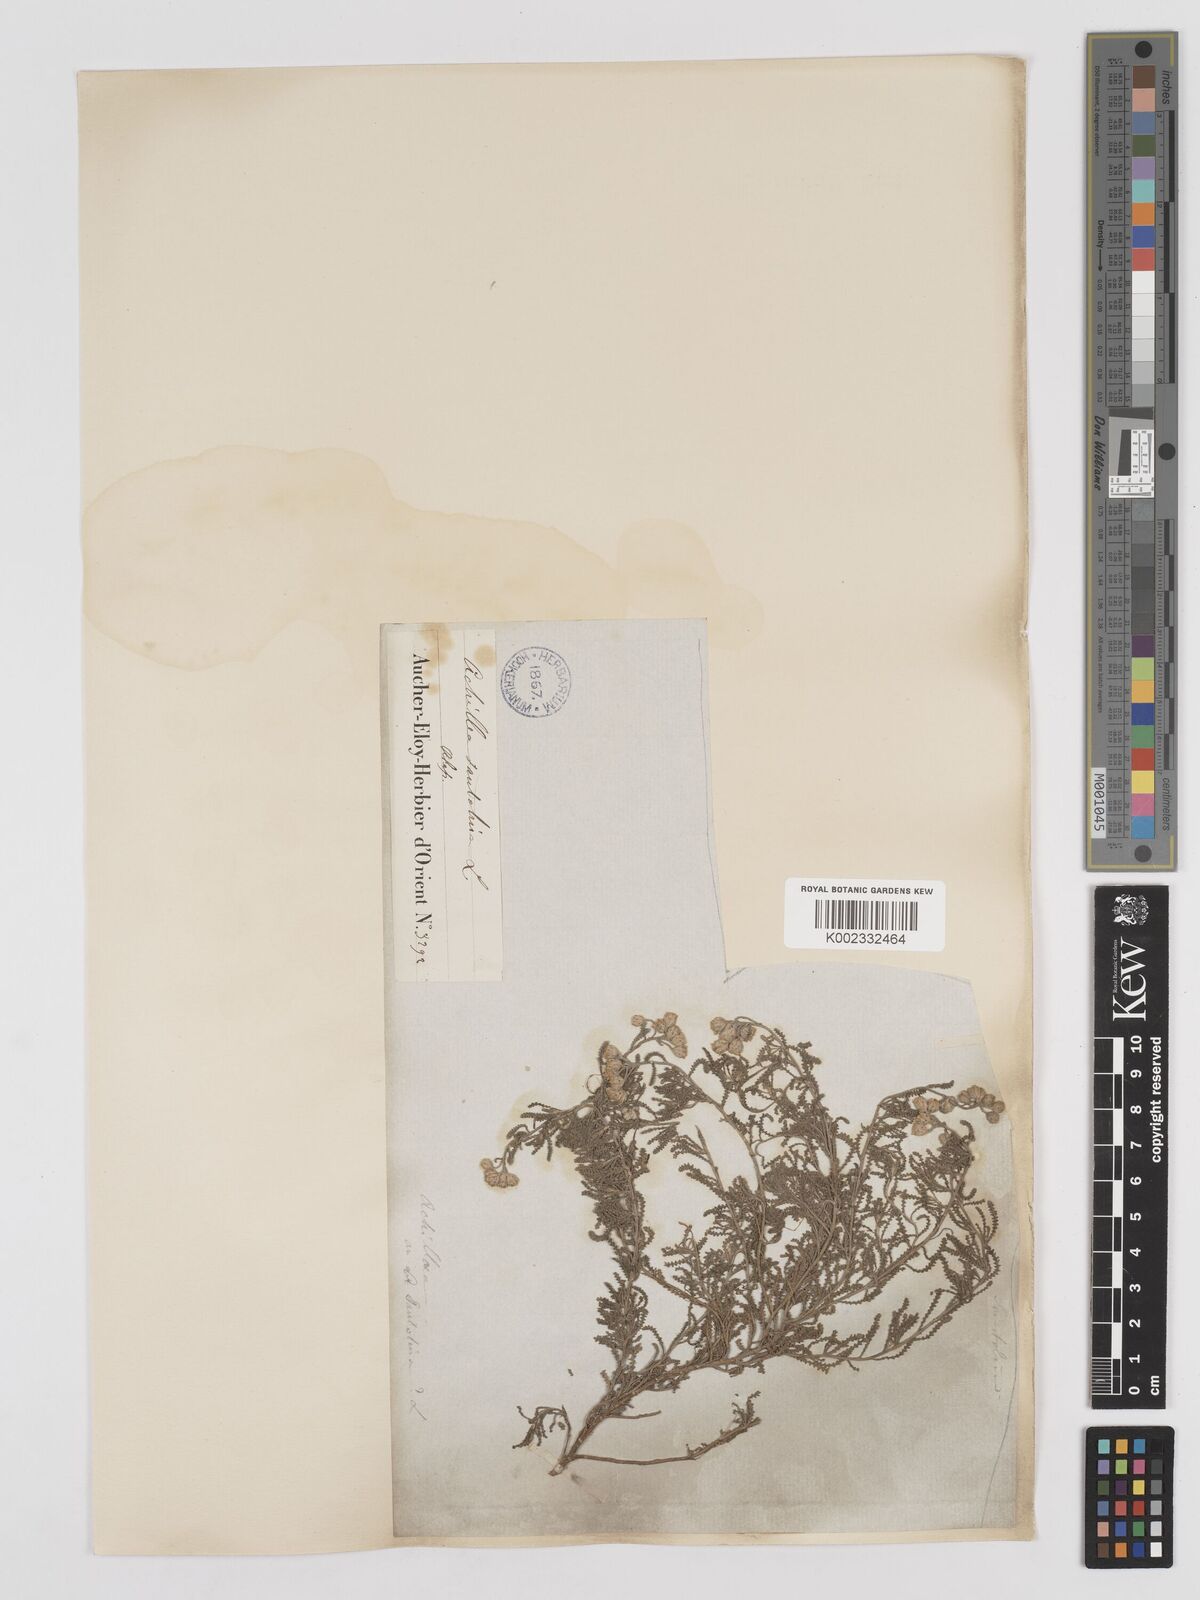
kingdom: Plantae
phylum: Tracheophyta
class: Magnoliopsida
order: Asterales
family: Asteraceae
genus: Achillea
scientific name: Achillea tenuifolia
